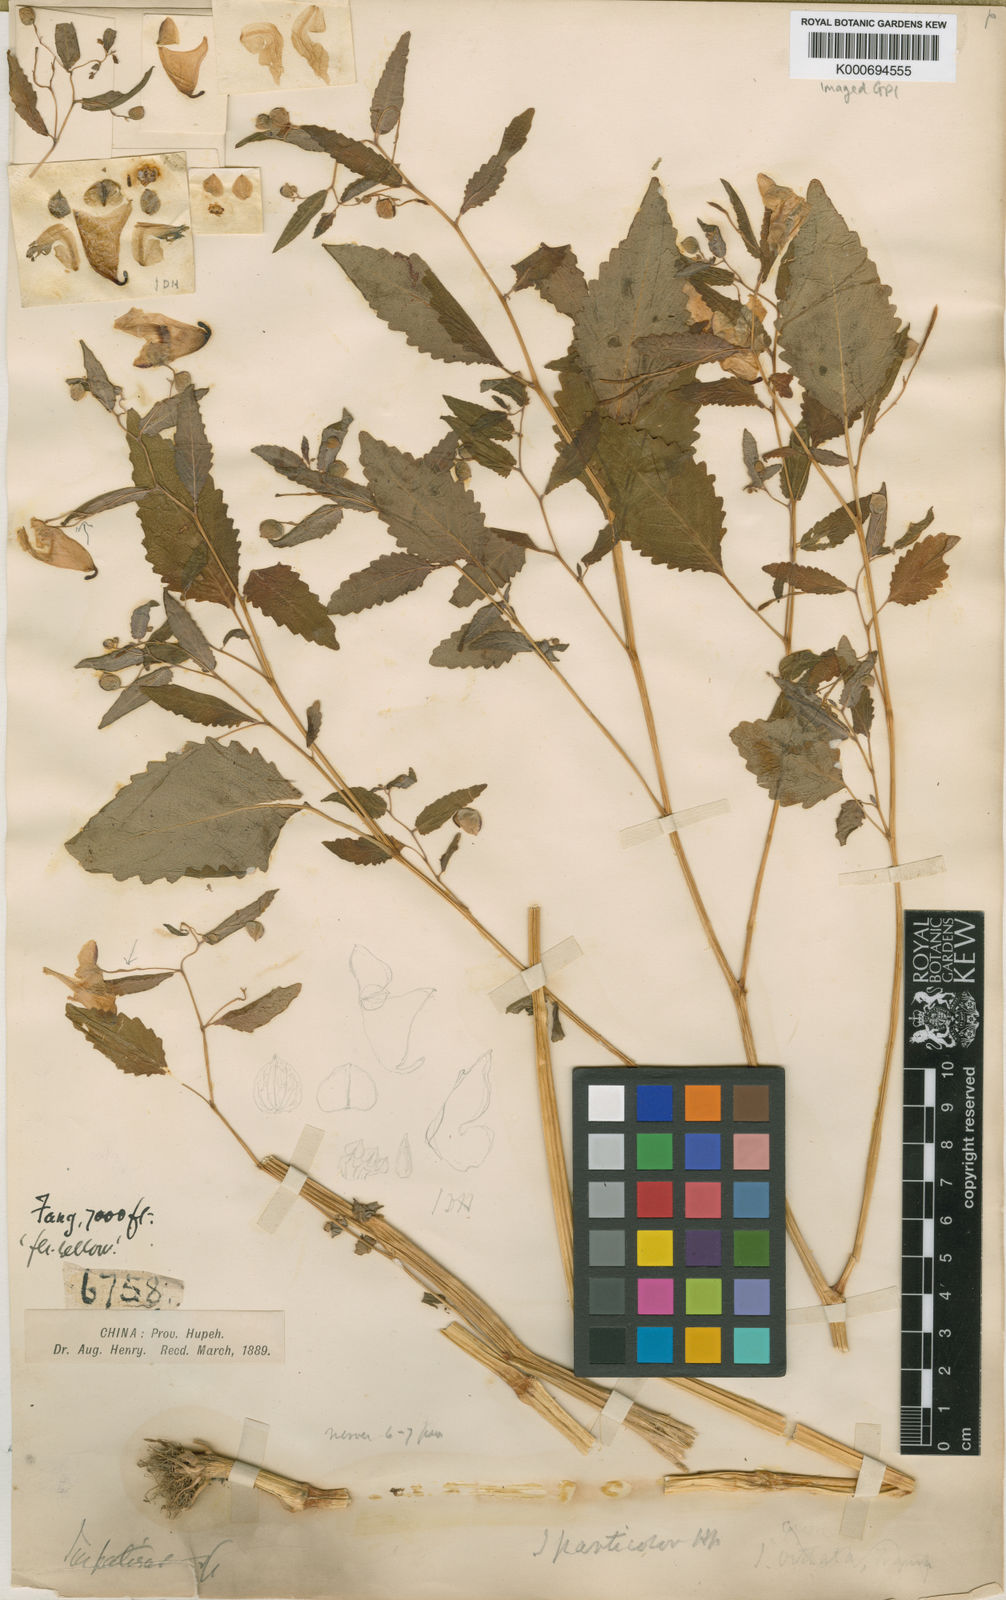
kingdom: Plantae
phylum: Tracheophyta
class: Magnoliopsida
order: Ericales
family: Balsaminaceae
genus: Impatiens
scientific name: Impatiens
